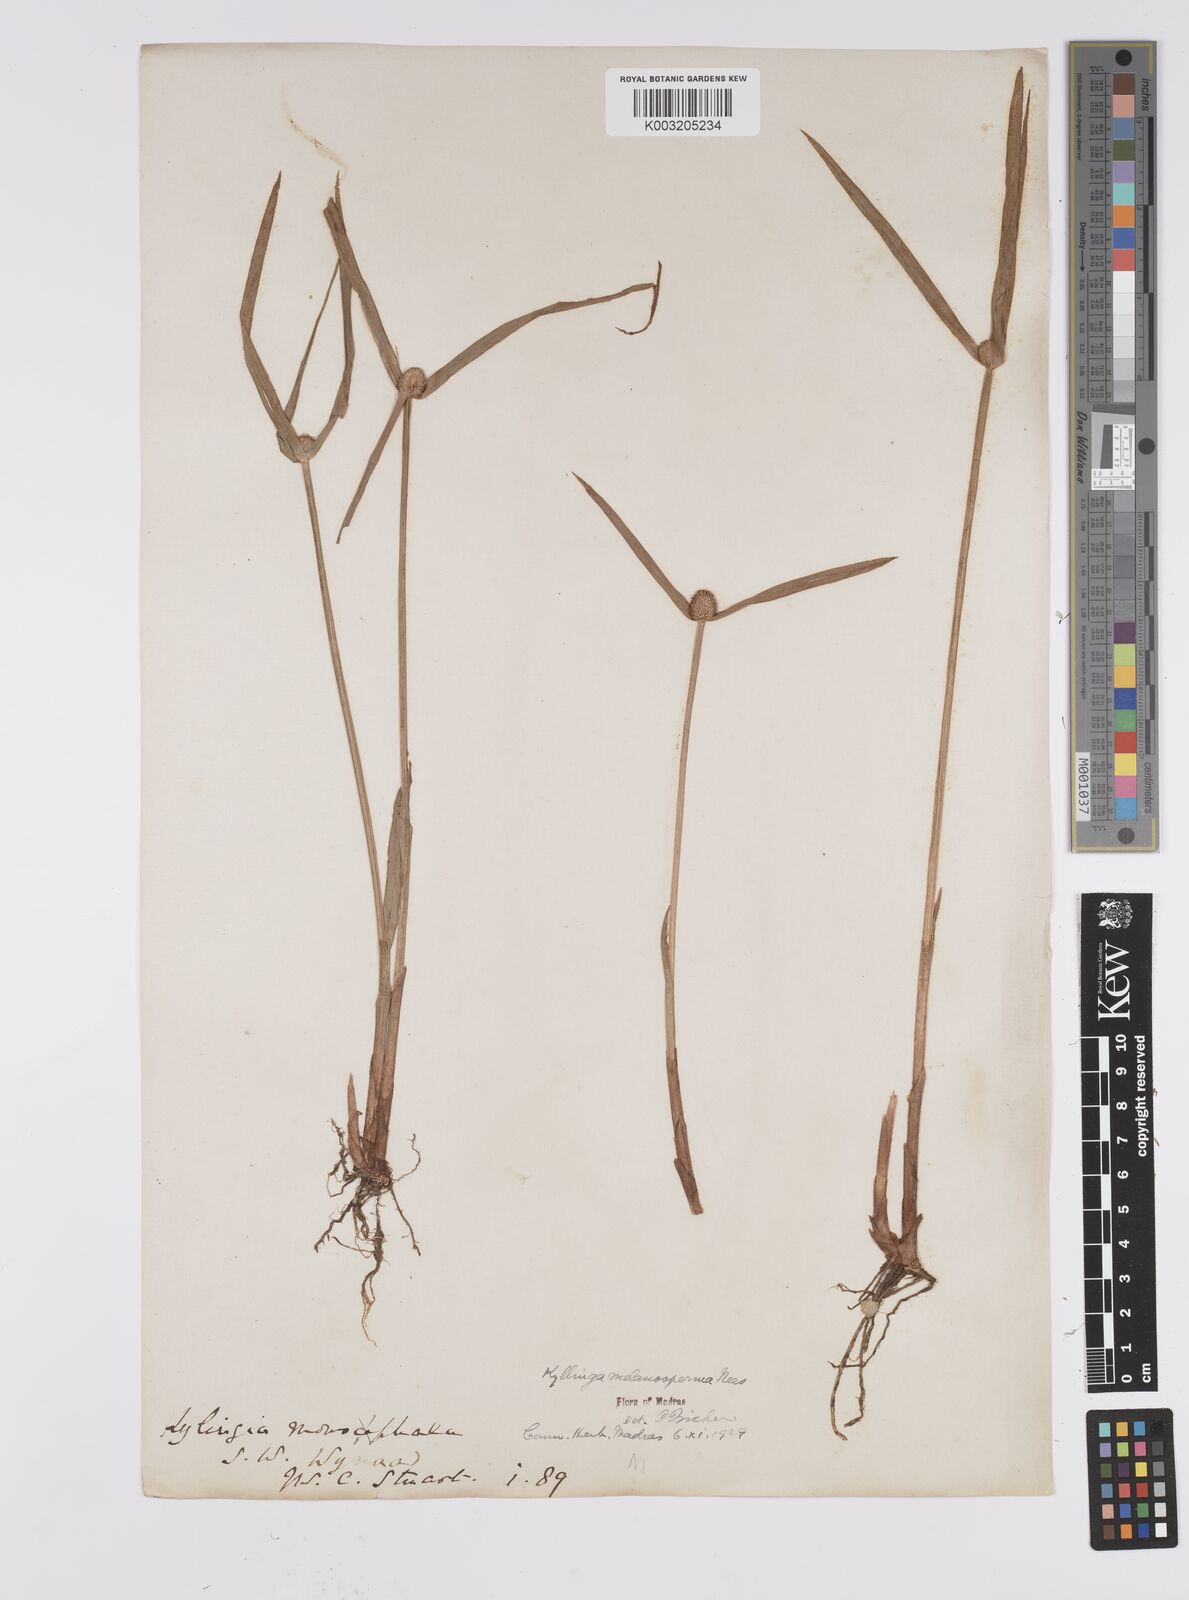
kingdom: Plantae
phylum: Tracheophyta
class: Liliopsida
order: Poales
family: Cyperaceae
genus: Cyperus
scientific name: Cyperus melanospermus
